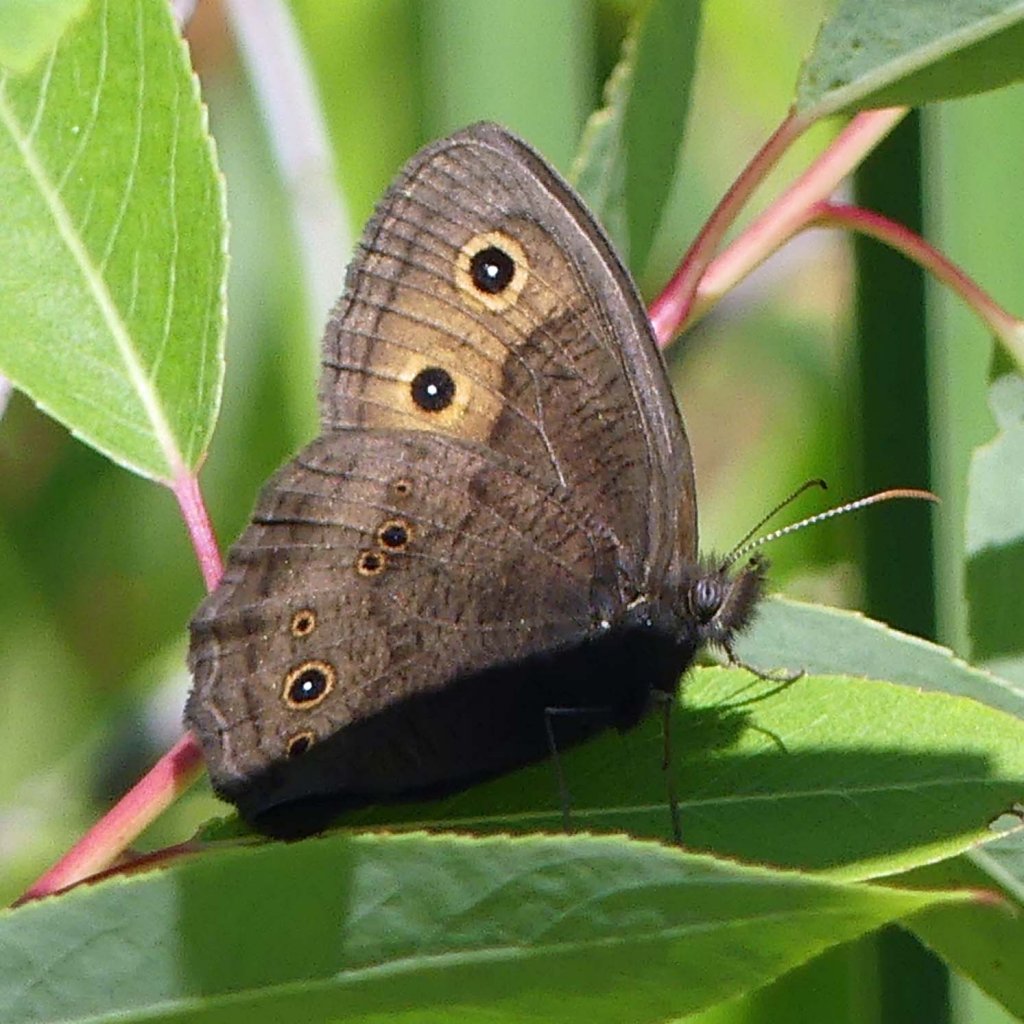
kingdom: Animalia
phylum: Arthropoda
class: Insecta
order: Lepidoptera
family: Nymphalidae
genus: Cercyonis
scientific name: Cercyonis pegala
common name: Common Wood-Nymph
